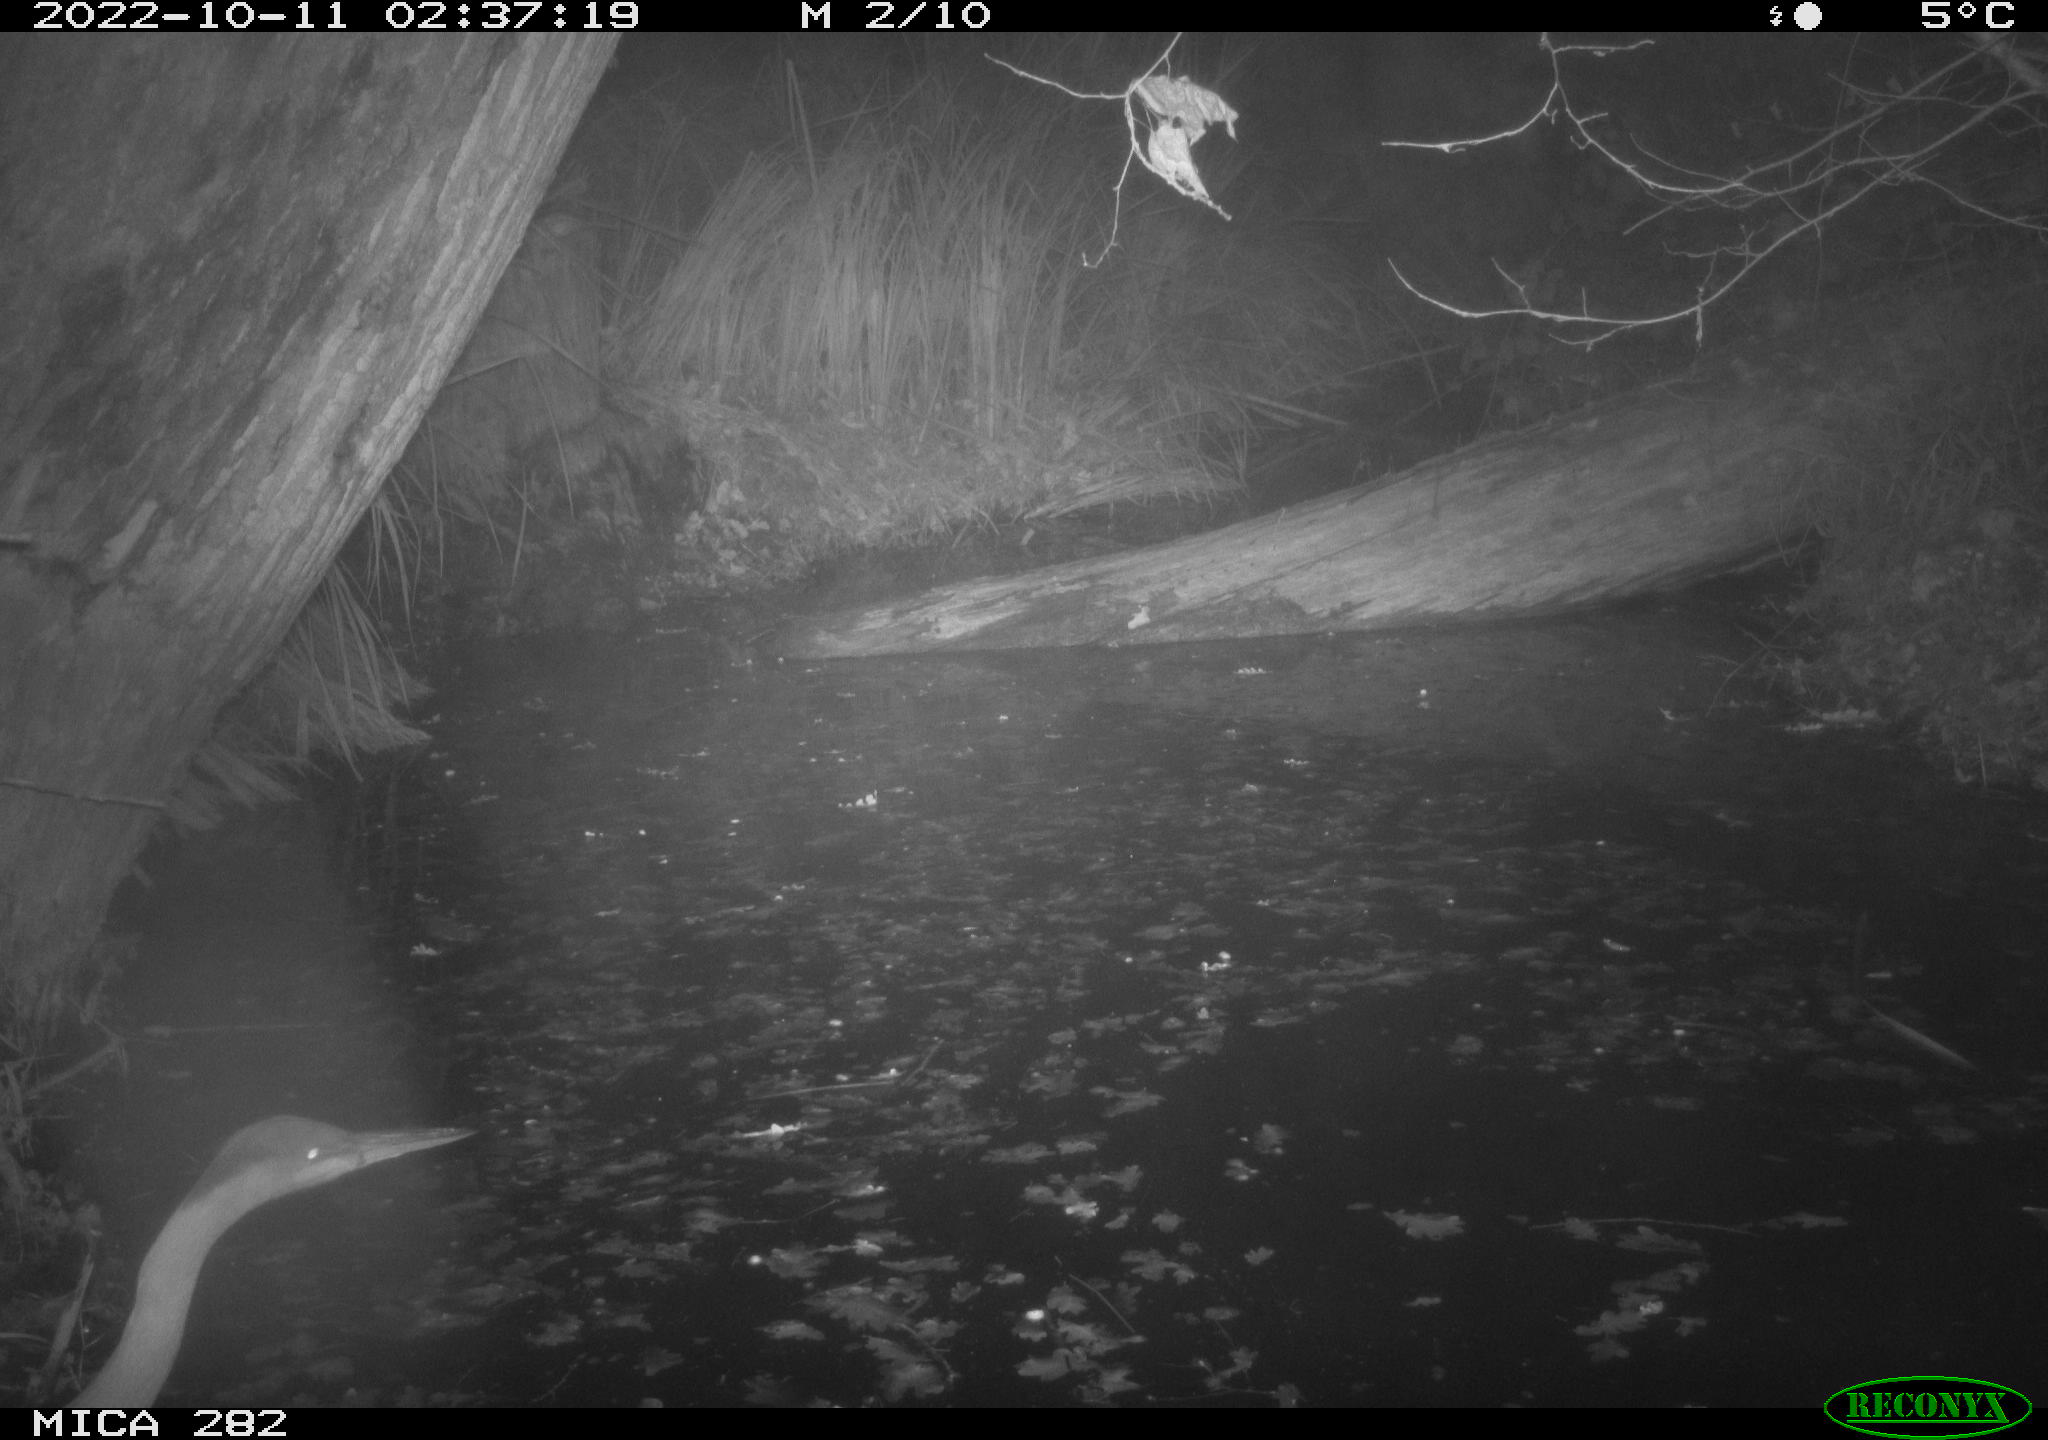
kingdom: Animalia
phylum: Chordata
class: Aves
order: Pelecaniformes
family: Ardeidae
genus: Ardea
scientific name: Ardea cinerea
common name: Grey heron
